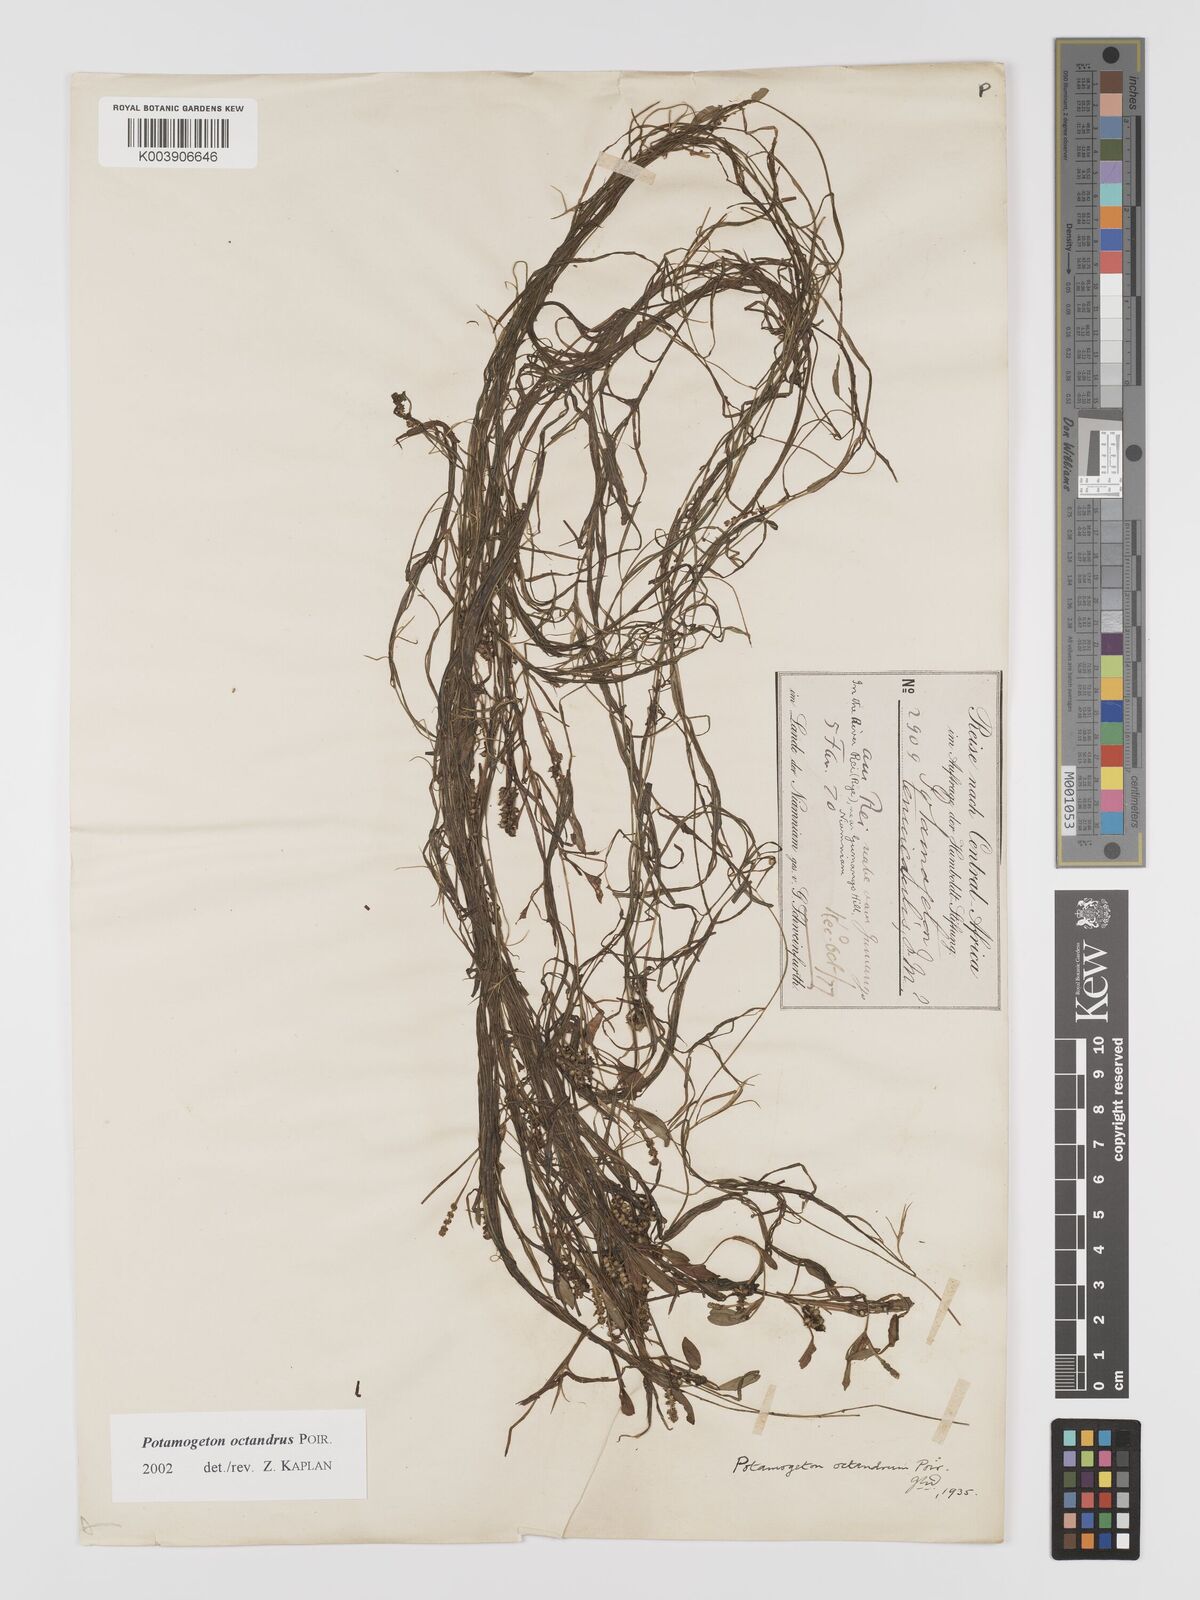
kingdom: Plantae
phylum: Tracheophyta
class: Liliopsida
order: Alismatales
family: Potamogetonaceae
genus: Potamogeton
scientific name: Potamogeton octandrus
